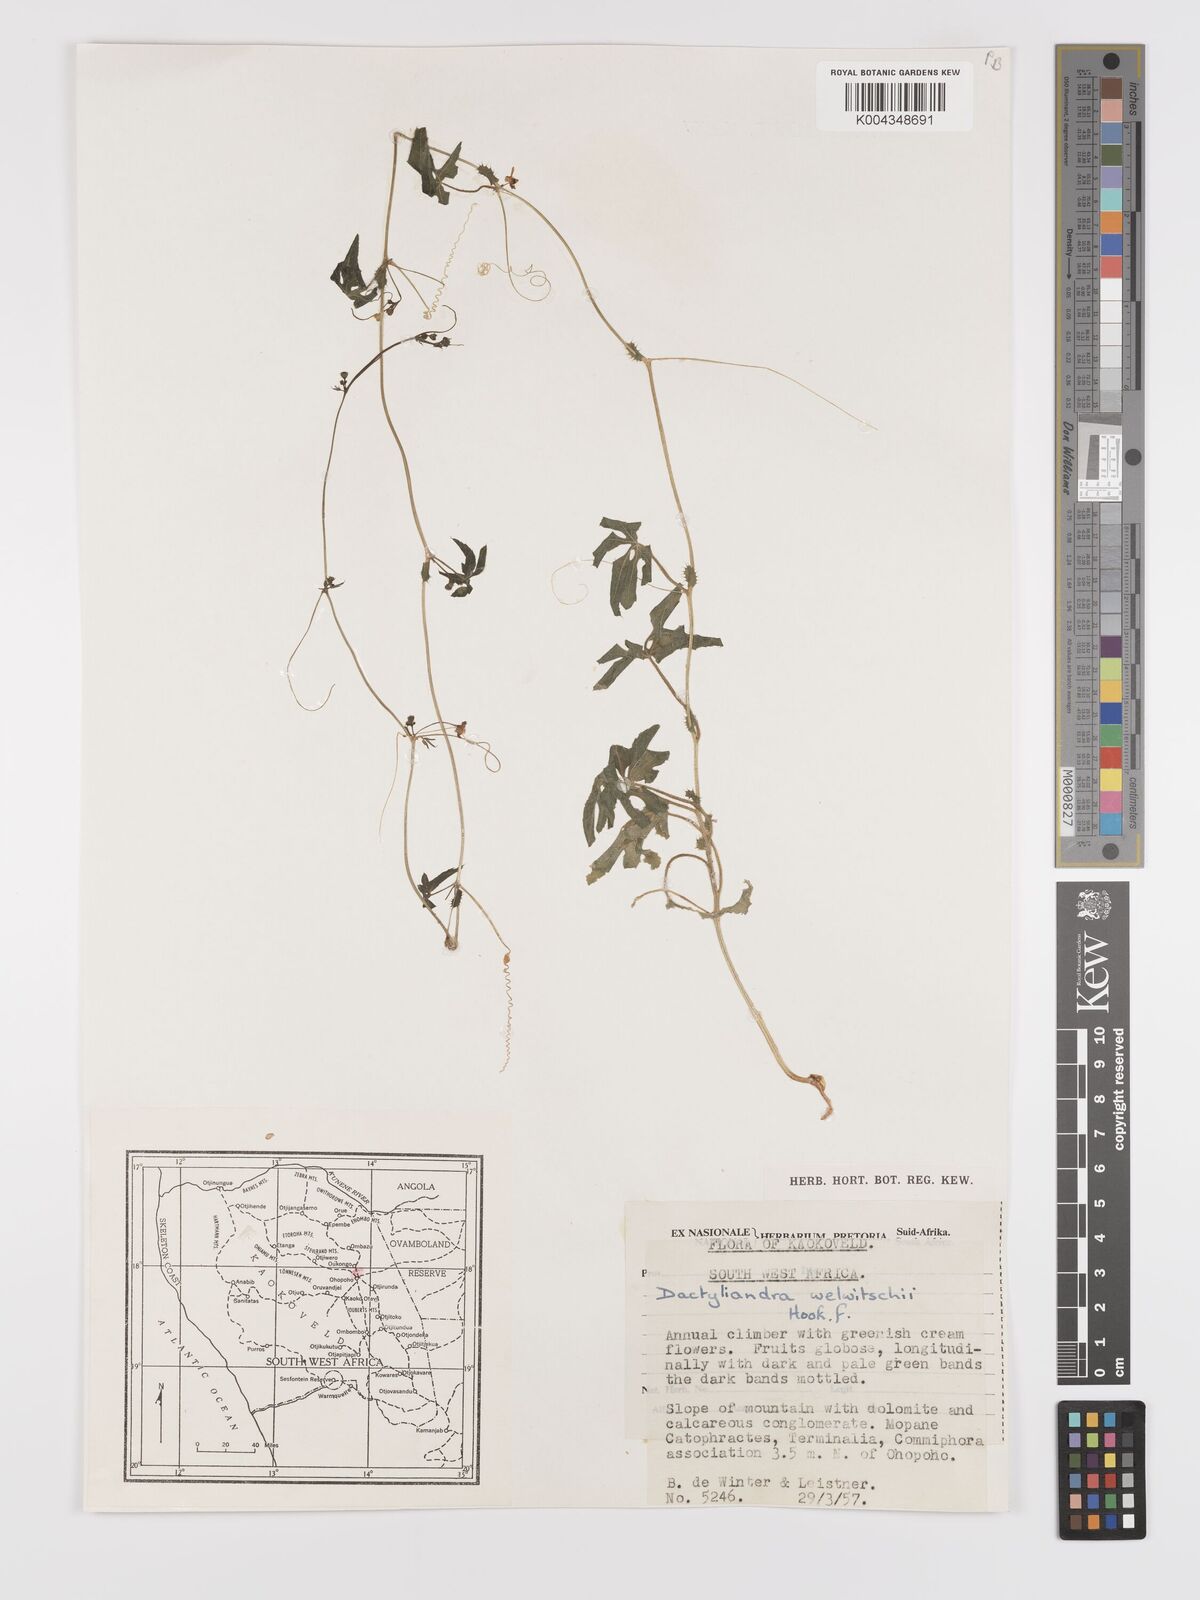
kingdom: Plantae
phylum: Tracheophyta
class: Magnoliopsida
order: Cucurbitales
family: Cucurbitaceae
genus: Dactyliandra
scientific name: Dactyliandra welwitschii
